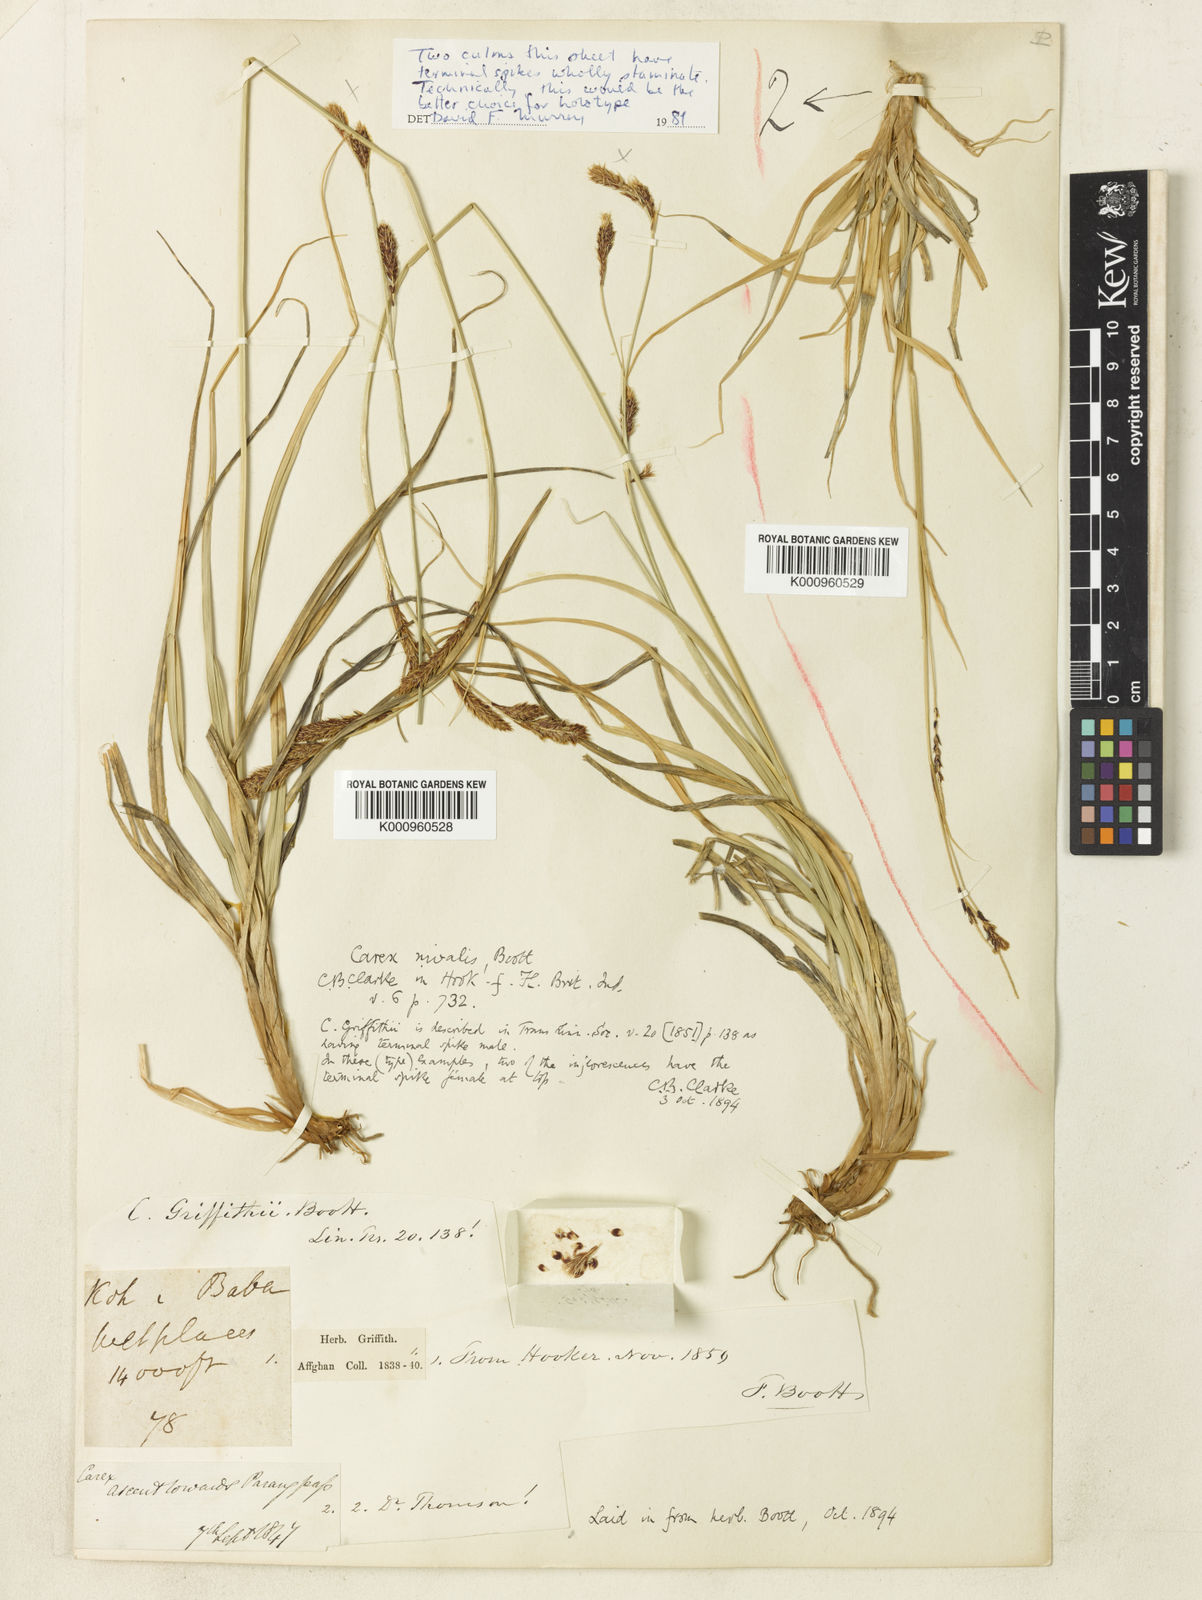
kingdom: Plantae
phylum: Tracheophyta
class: Liliopsida
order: Poales
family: Cyperaceae
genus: Carex
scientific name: Carex nivalis
